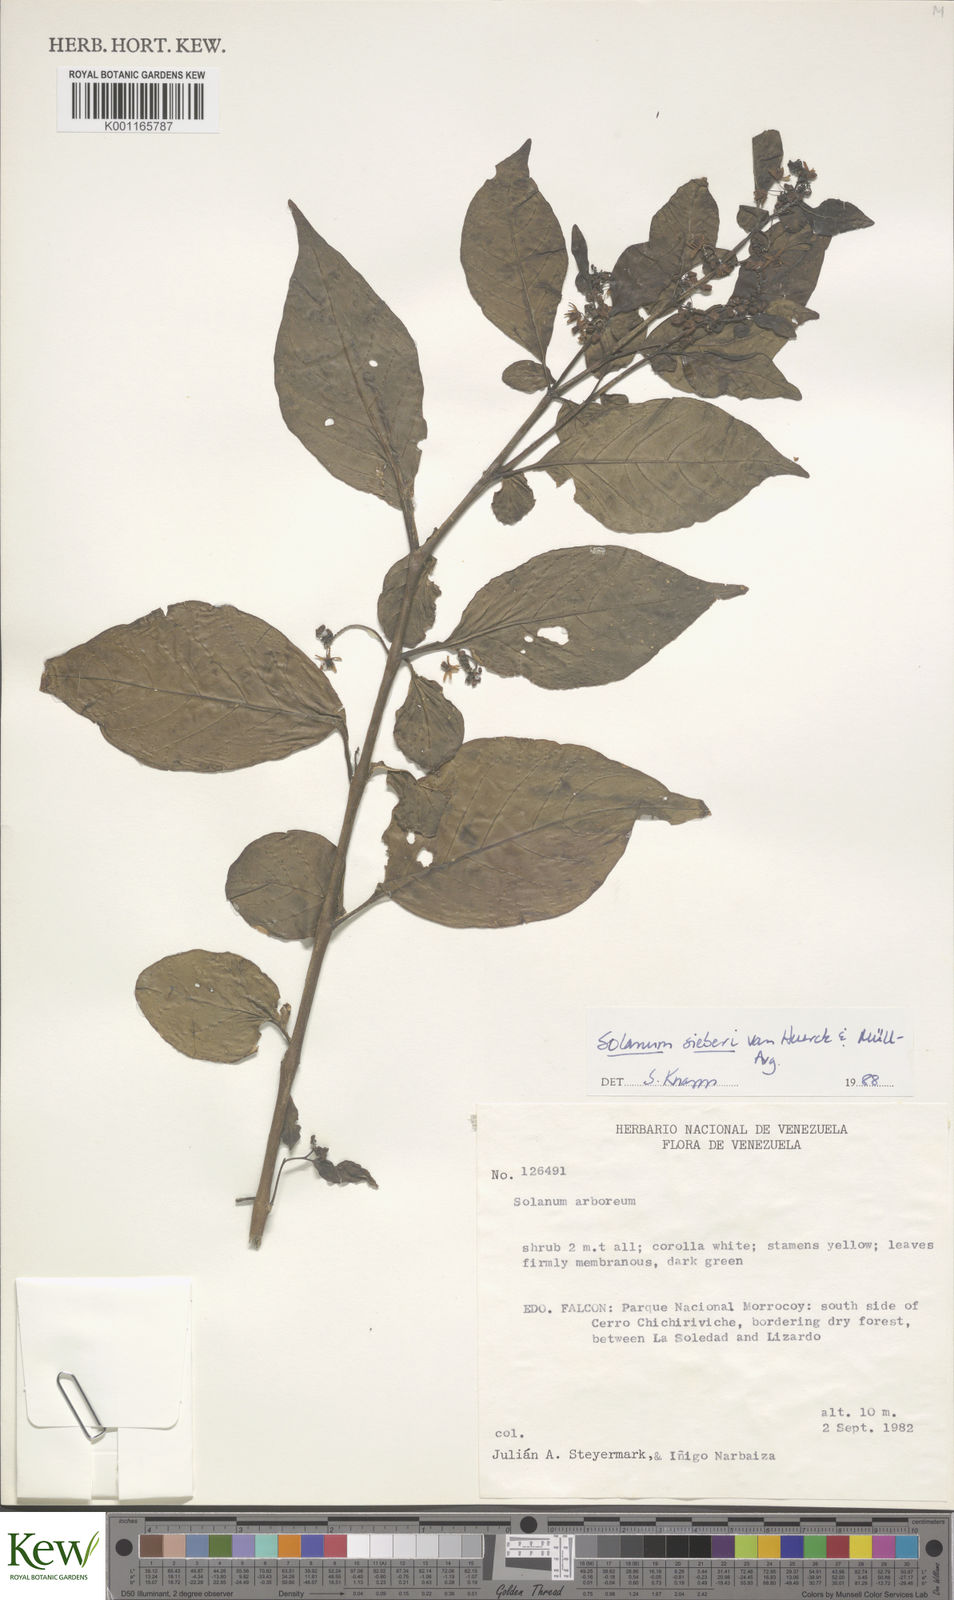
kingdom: Plantae
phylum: Tracheophyta
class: Magnoliopsida
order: Solanales
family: Solanaceae
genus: Solanum
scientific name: Solanum sieberi
